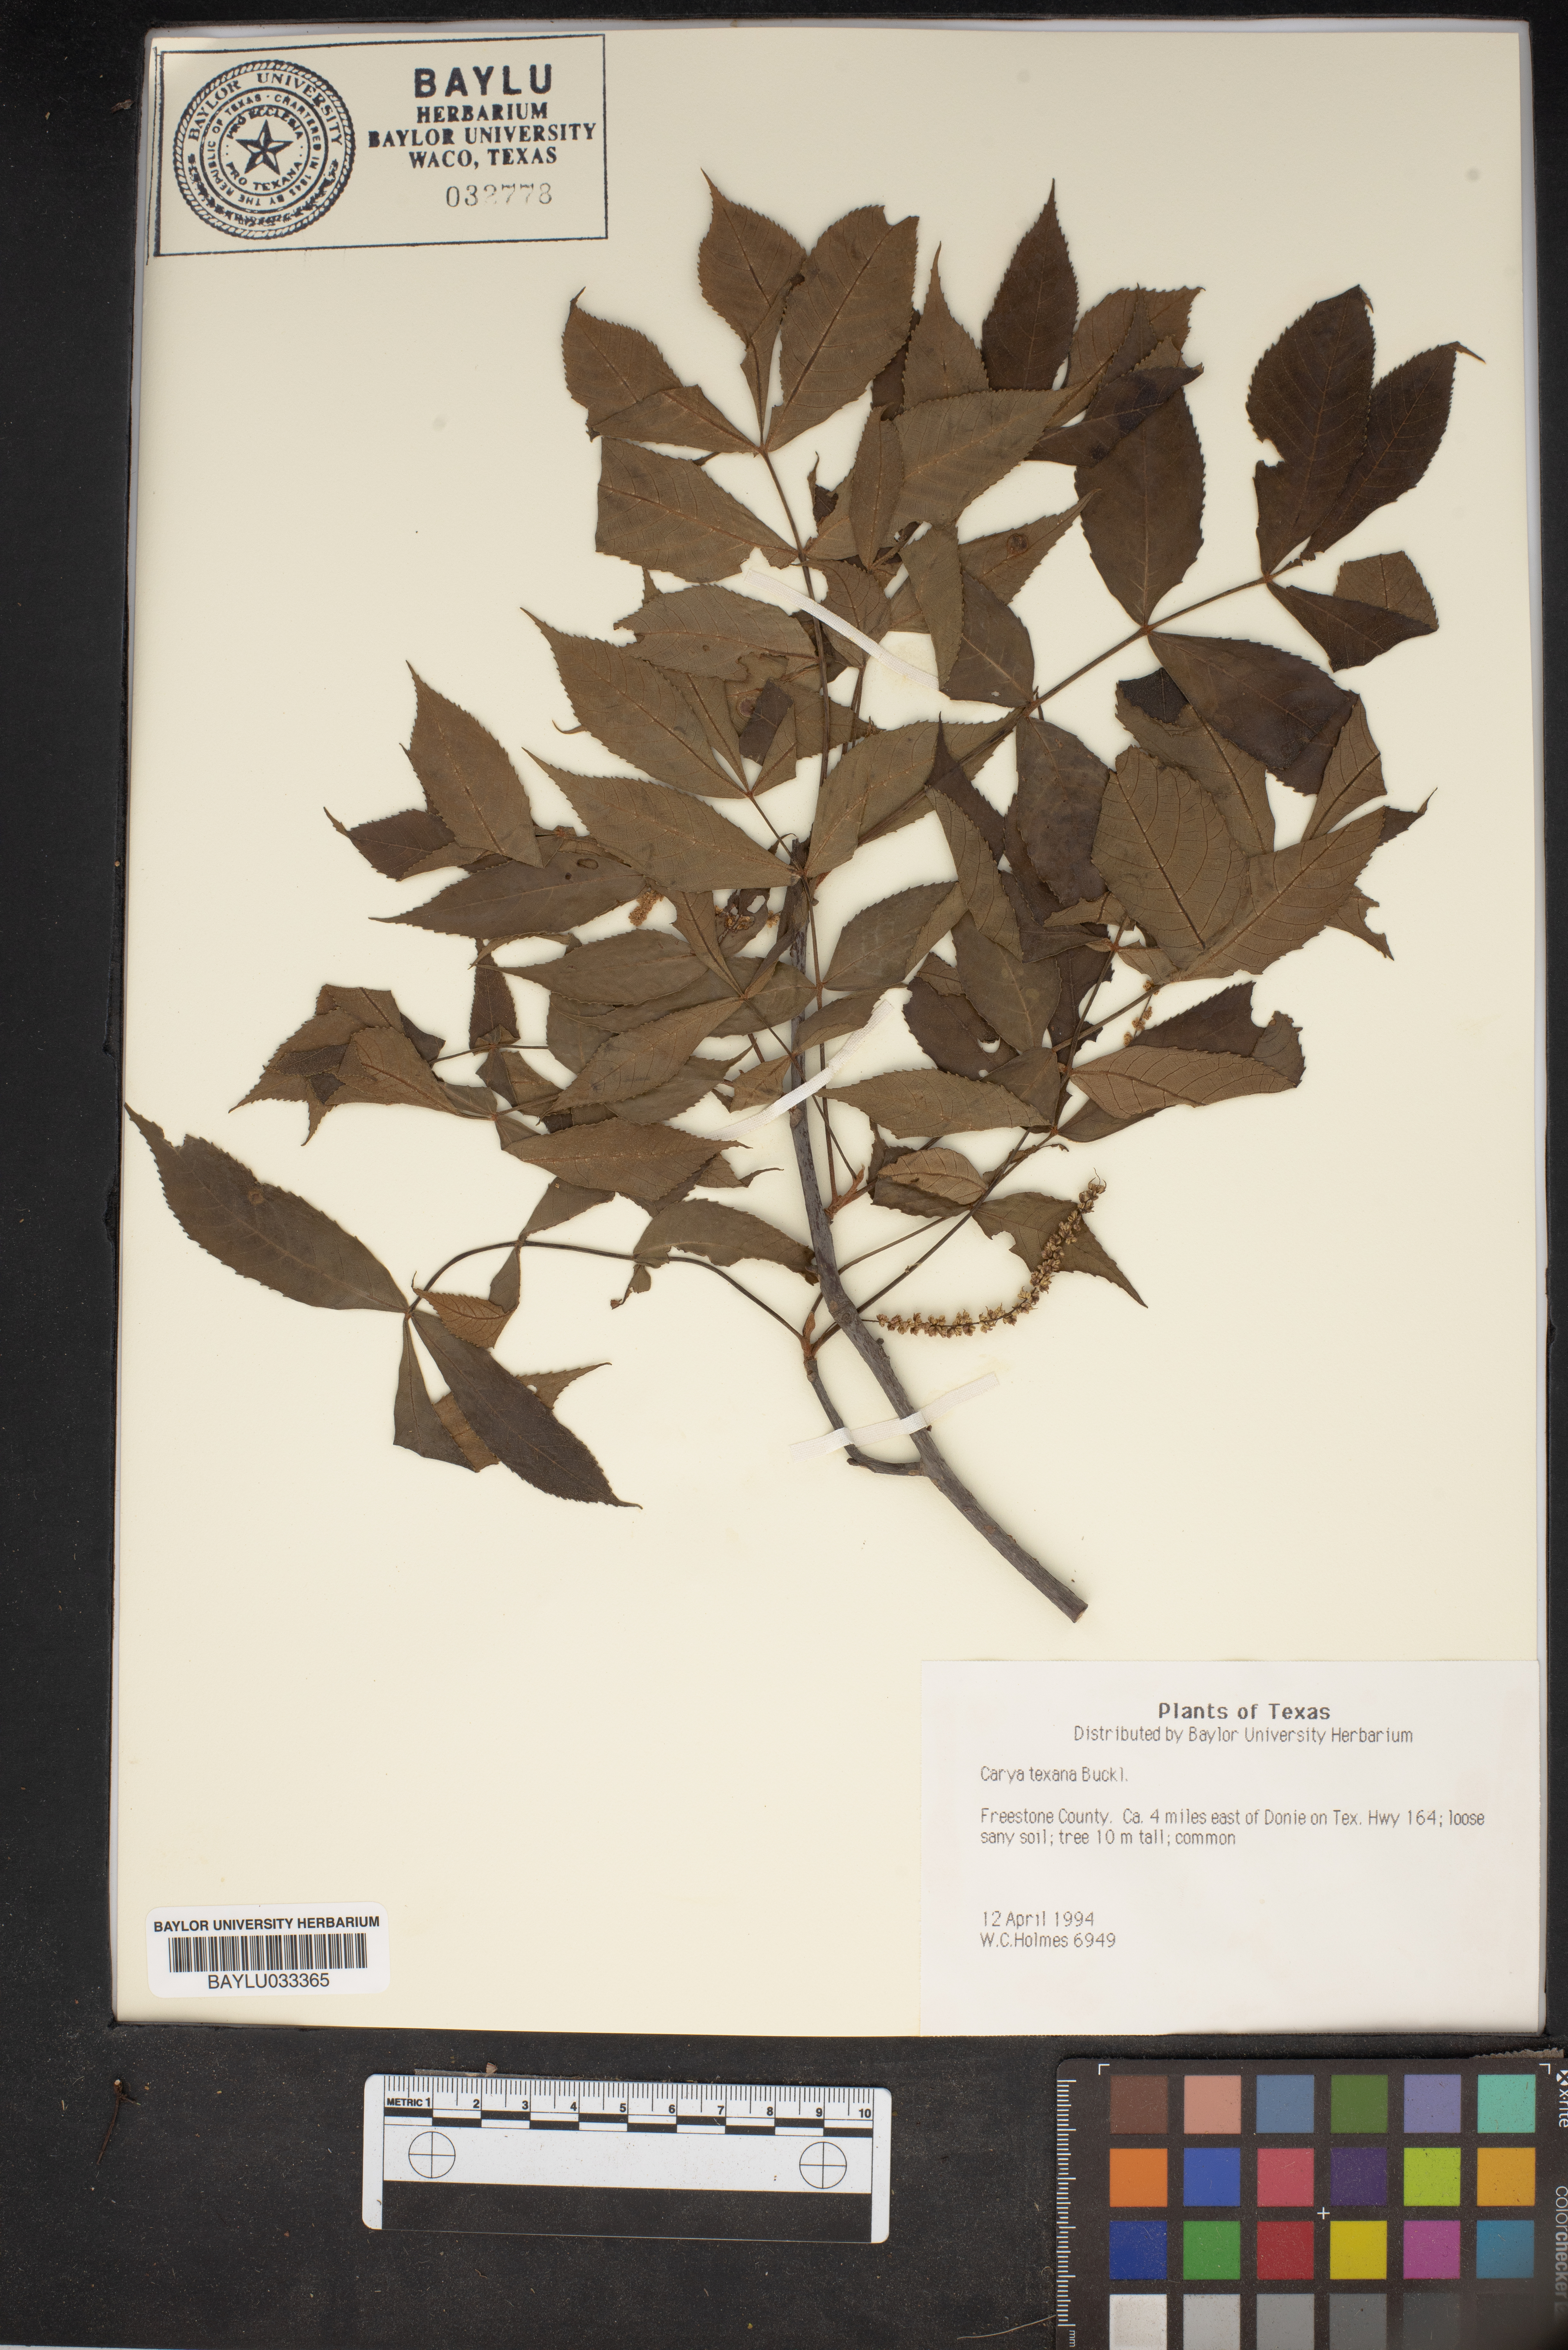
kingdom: Plantae
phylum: Tracheophyta
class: Magnoliopsida
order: Fagales
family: Juglandaceae
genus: Carya
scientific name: Carya texana
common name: Black hickory
